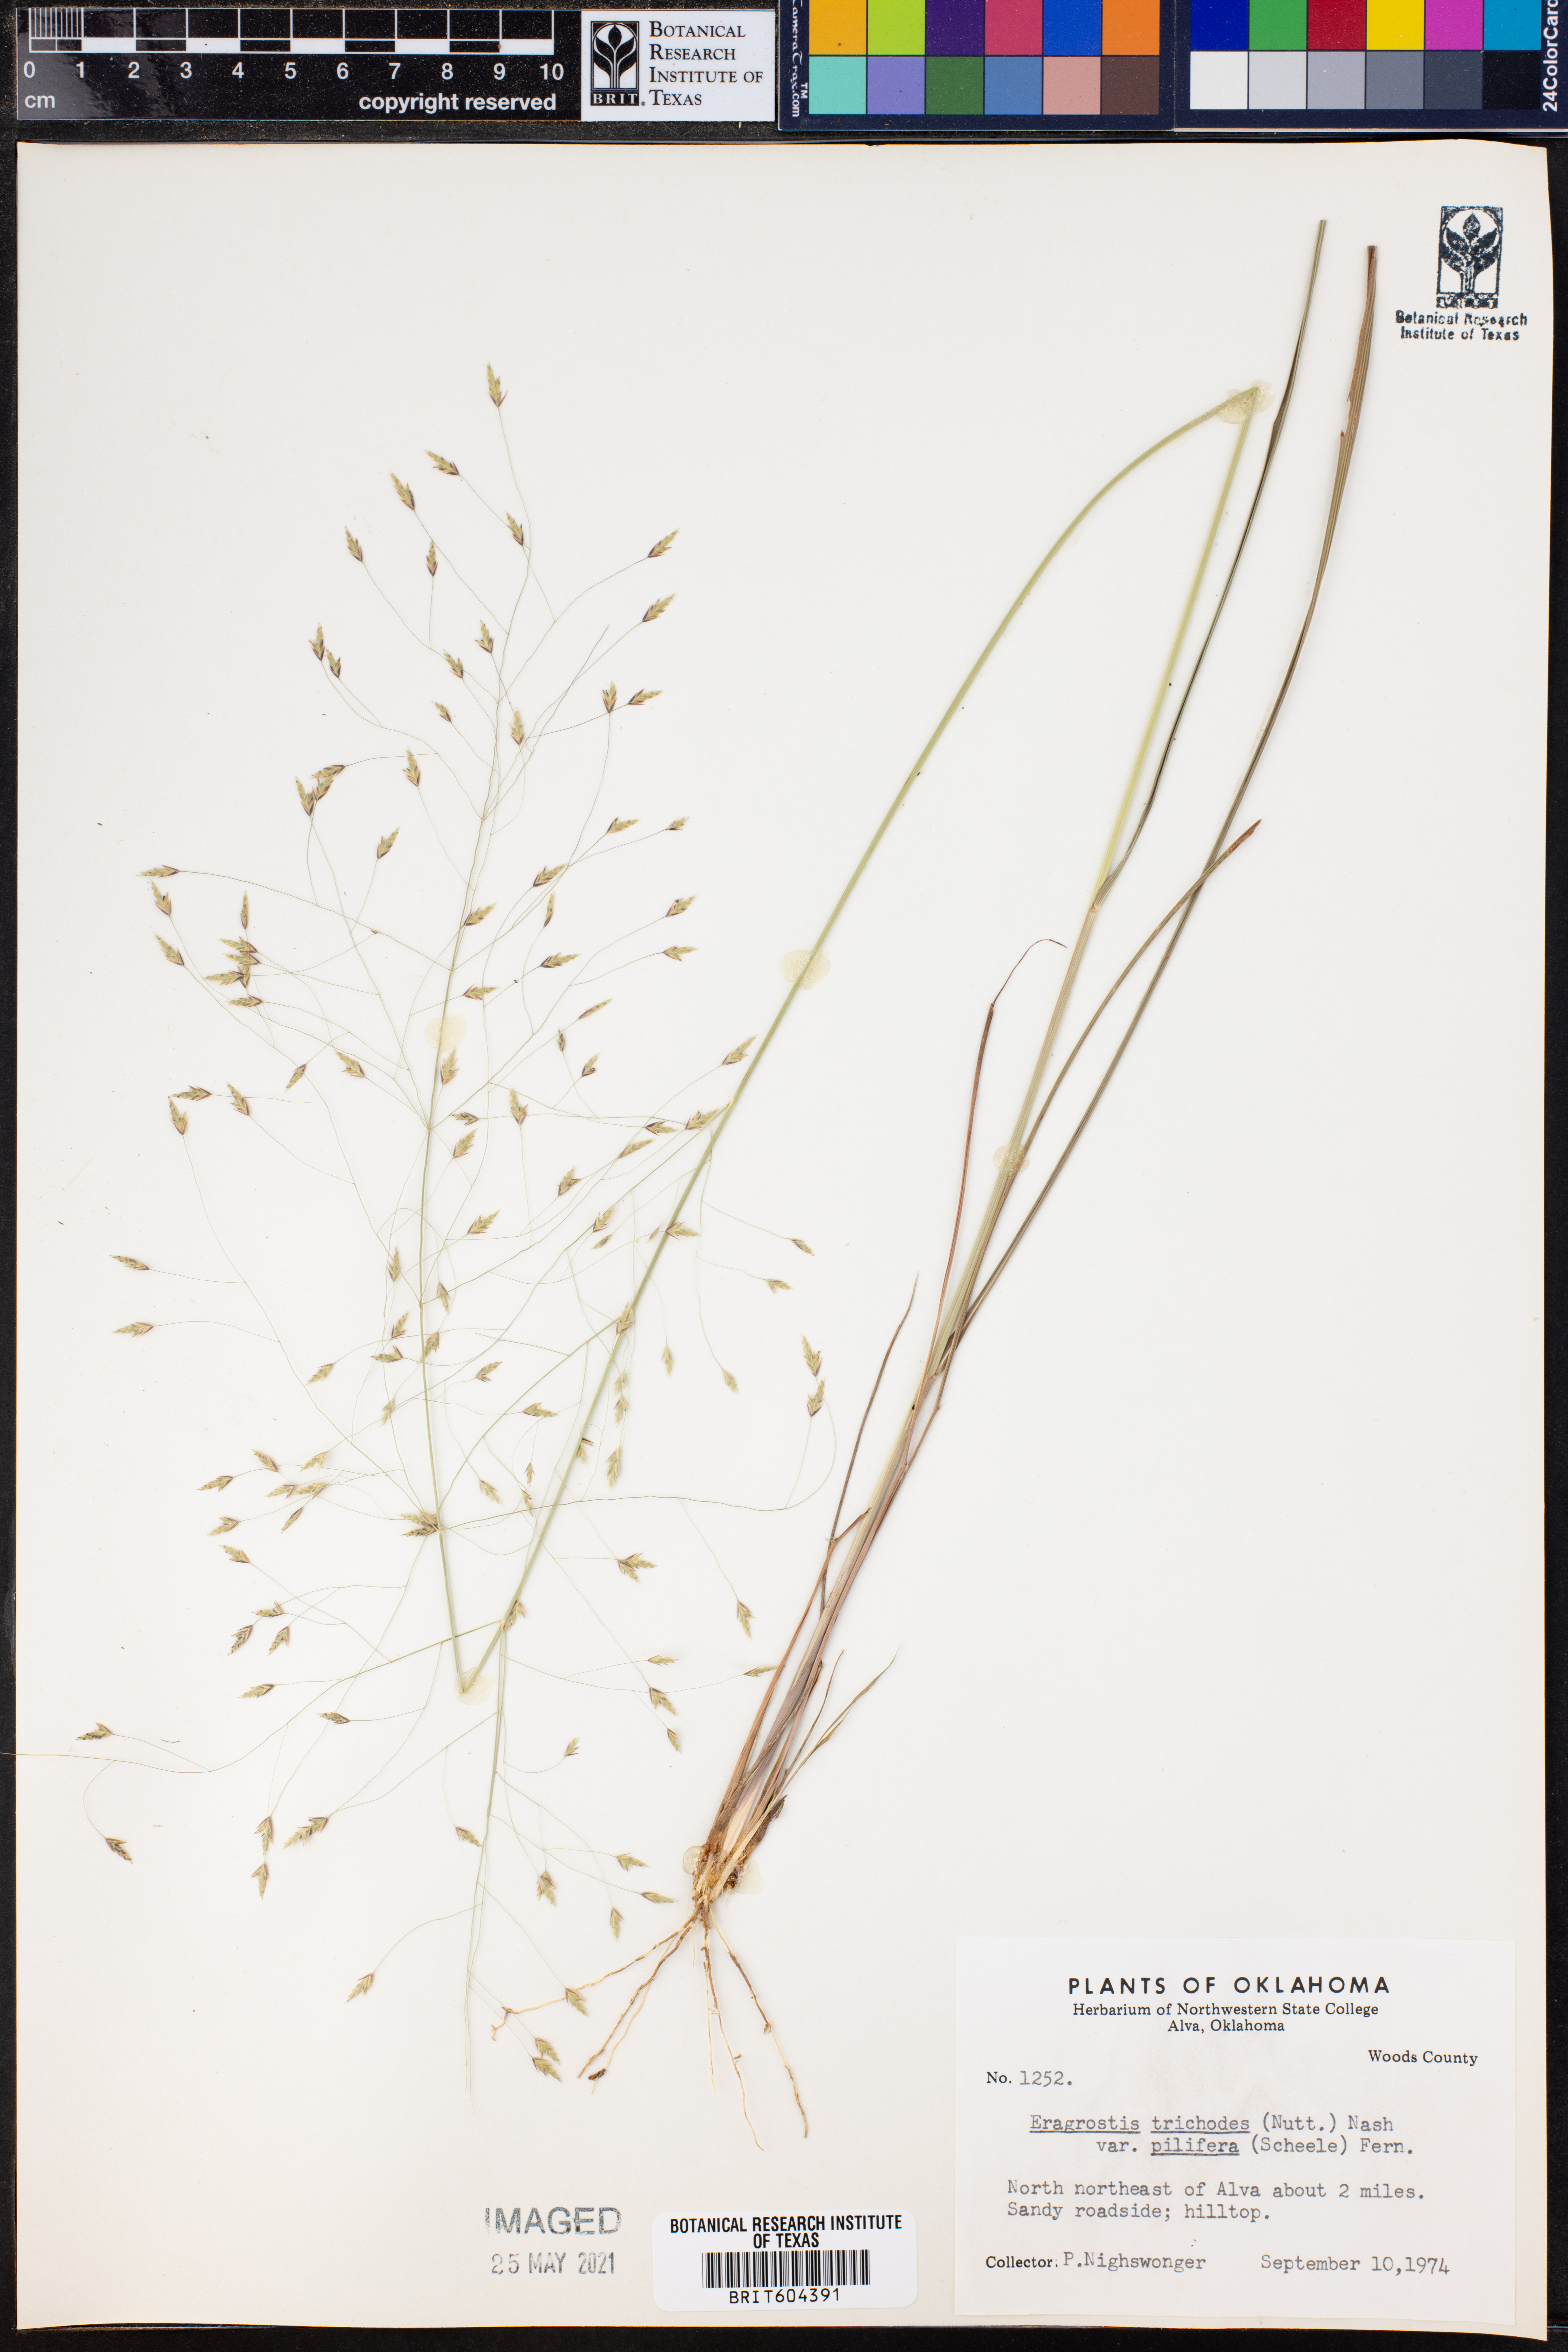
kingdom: Plantae
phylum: Tracheophyta
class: Liliopsida
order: Poales
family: Poaceae
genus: Eragrostis
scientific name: Eragrostis trichodes
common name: Sand love grass
